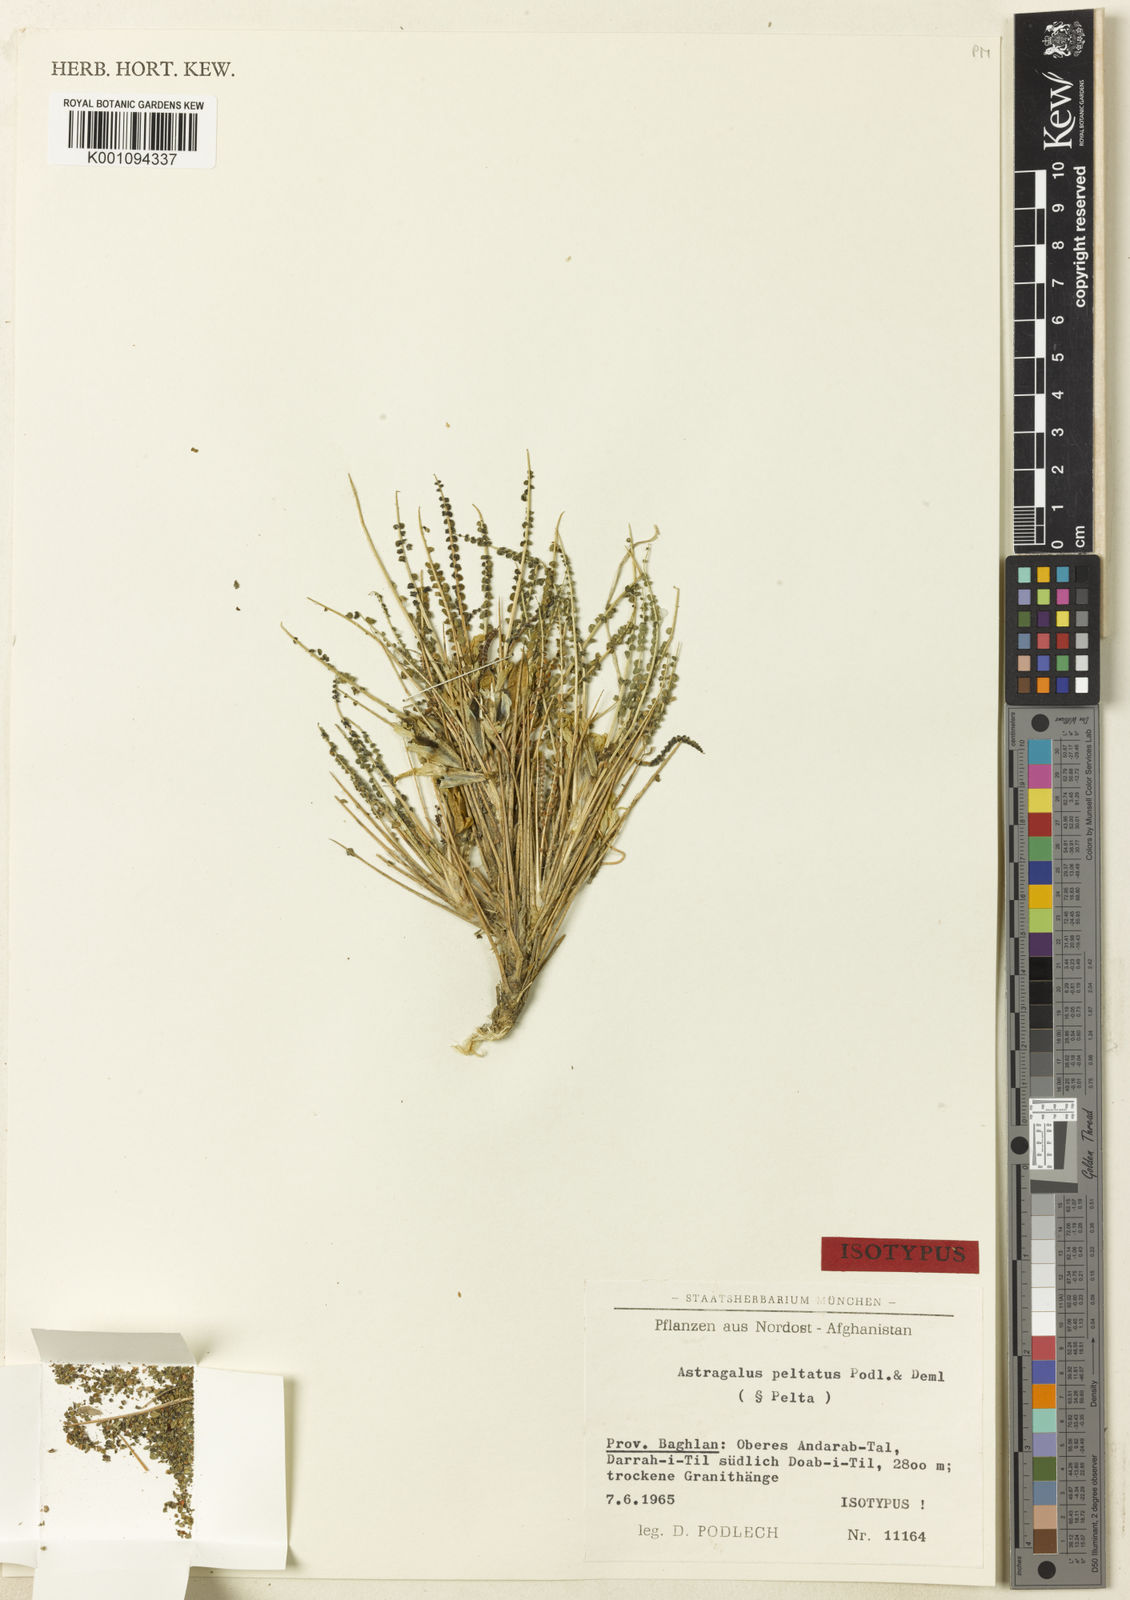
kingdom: Plantae
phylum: Tracheophyta
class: Magnoliopsida
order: Fabales
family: Fabaceae
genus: Astragalus
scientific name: Astragalus
